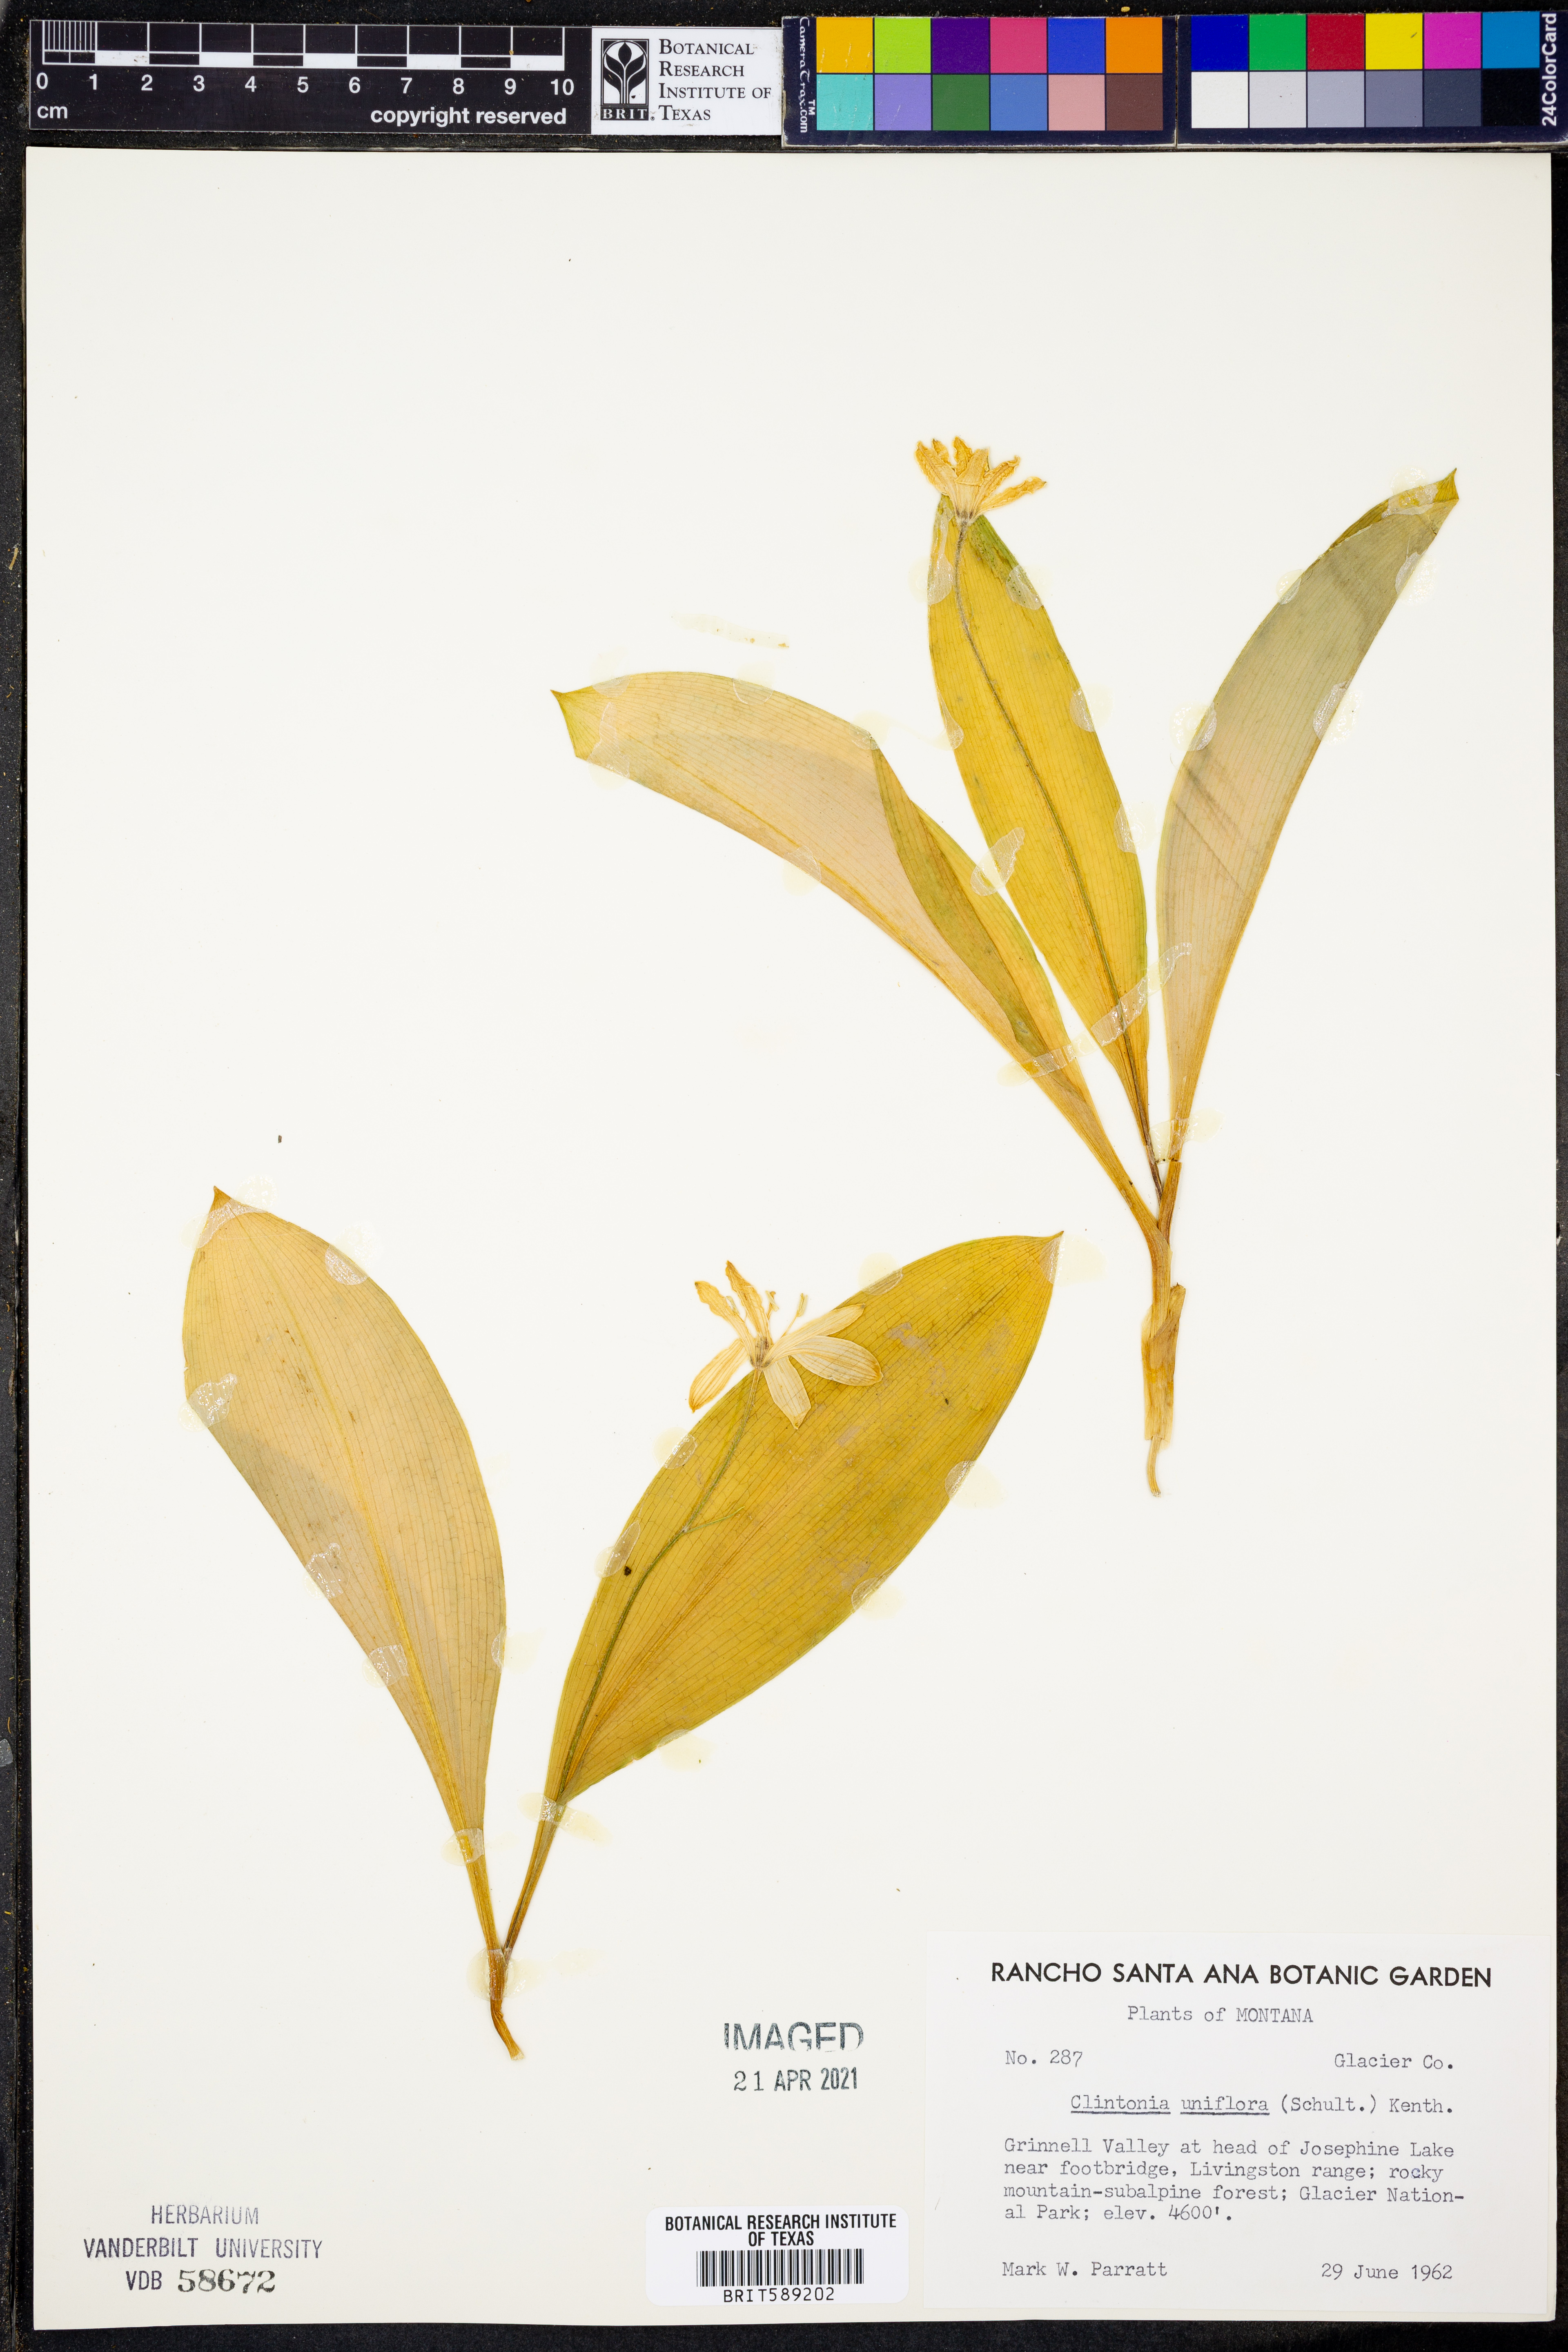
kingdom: Plantae
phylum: Tracheophyta
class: Liliopsida
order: Liliales
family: Liliaceae
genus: Clintonia
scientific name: Clintonia uniflora
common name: Queen's cup
